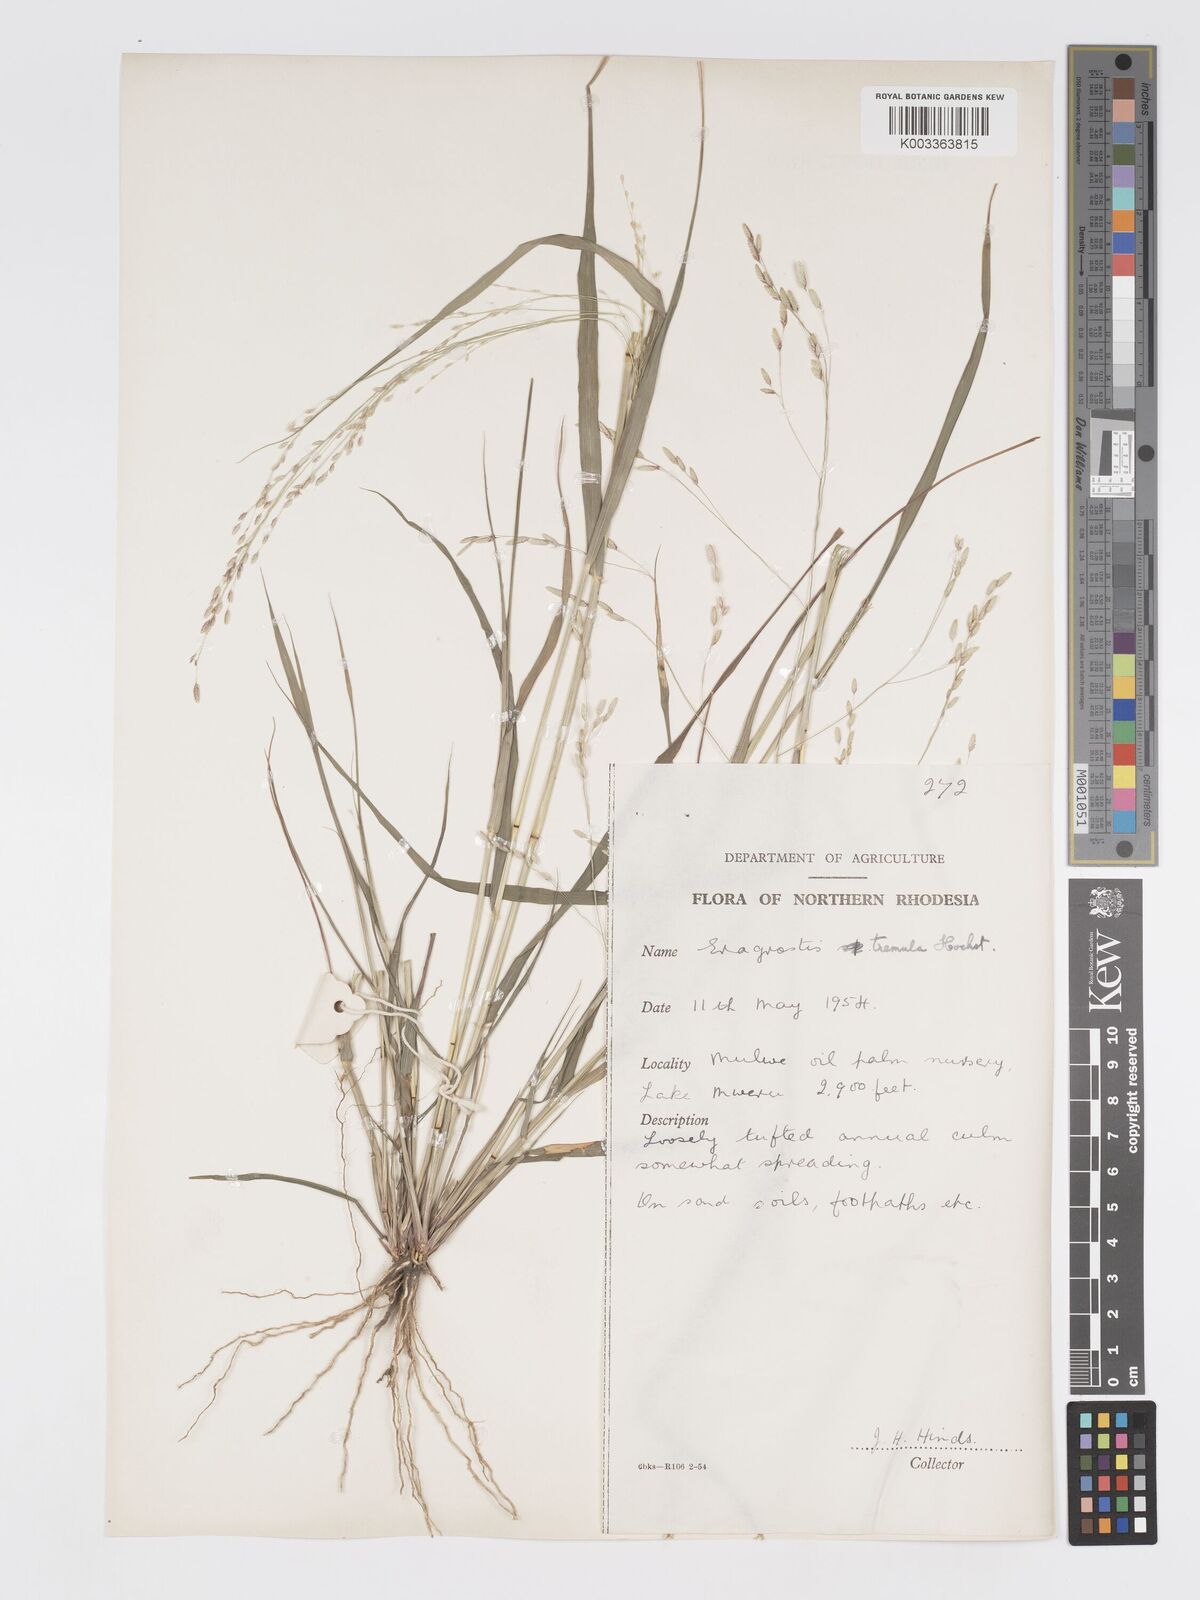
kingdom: Plantae
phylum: Tracheophyta
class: Liliopsida
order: Poales
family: Poaceae
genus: Eragrostis
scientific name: Eragrostis tremula
